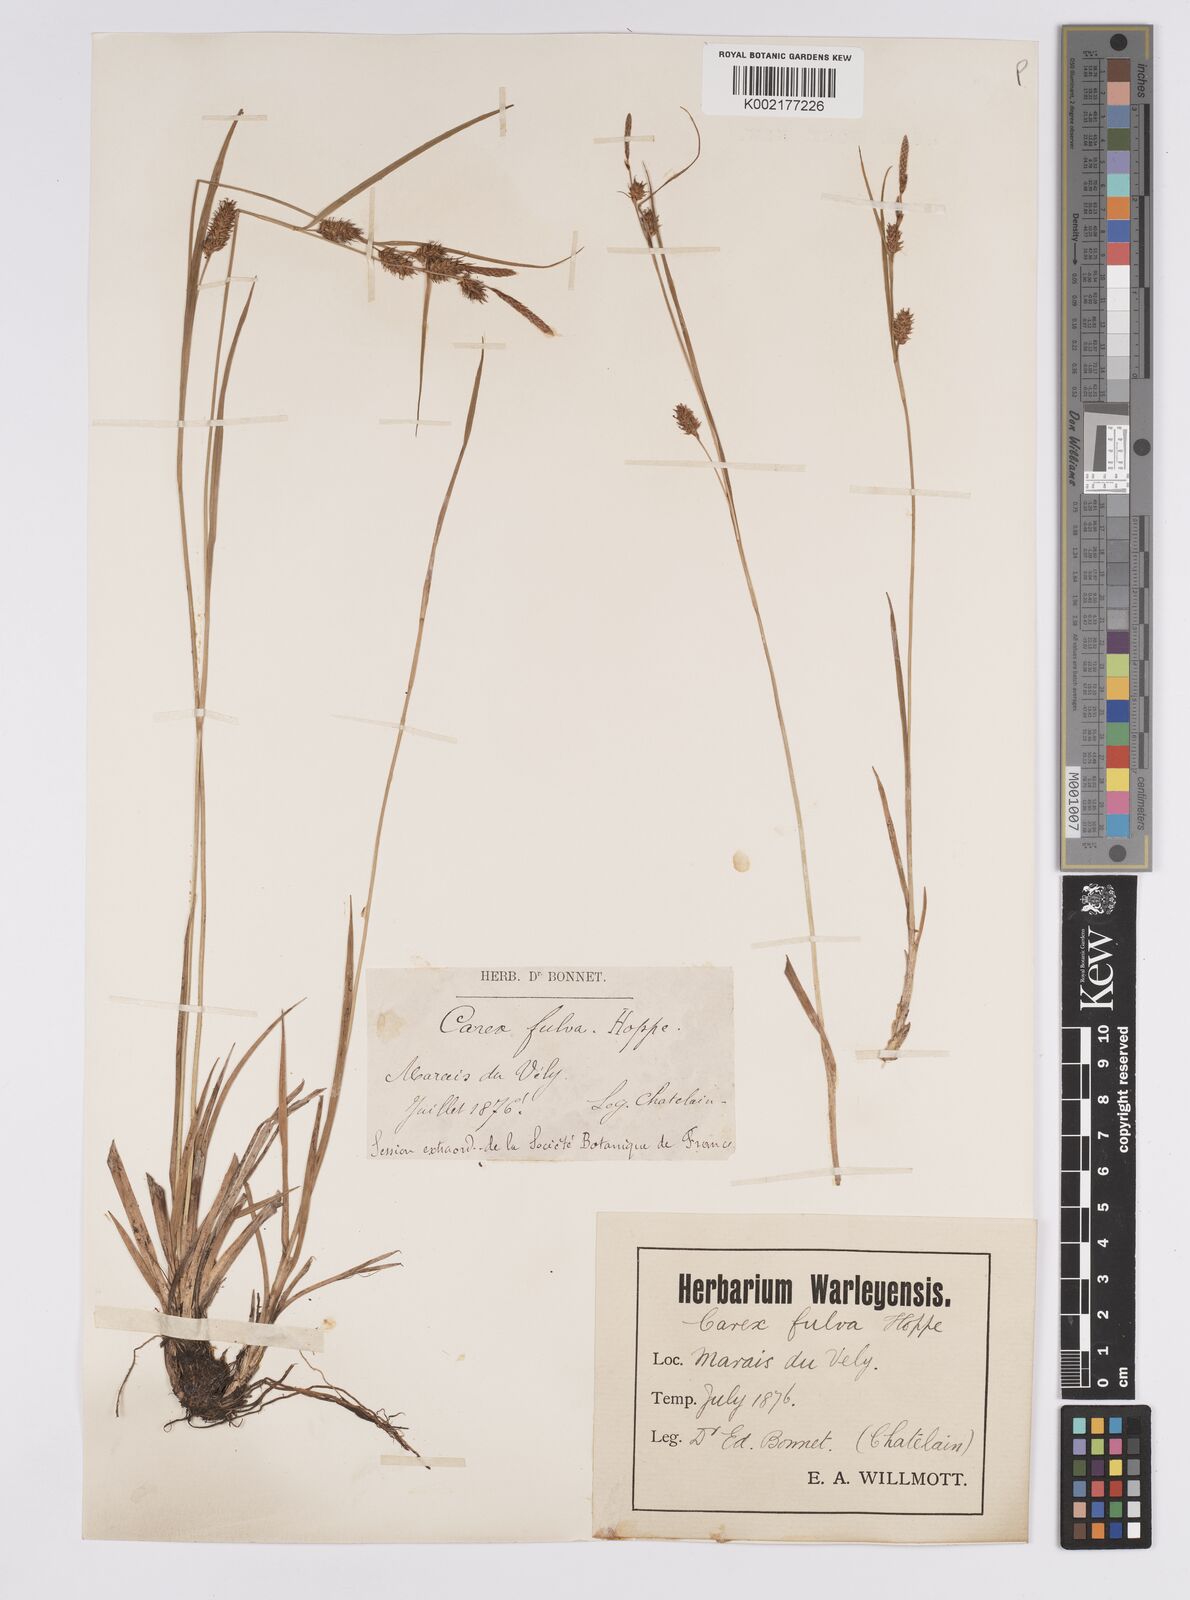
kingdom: Plantae
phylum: Tracheophyta
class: Liliopsida
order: Poales
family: Cyperaceae
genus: Carex
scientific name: Carex hostiana
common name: Tawny sedge
